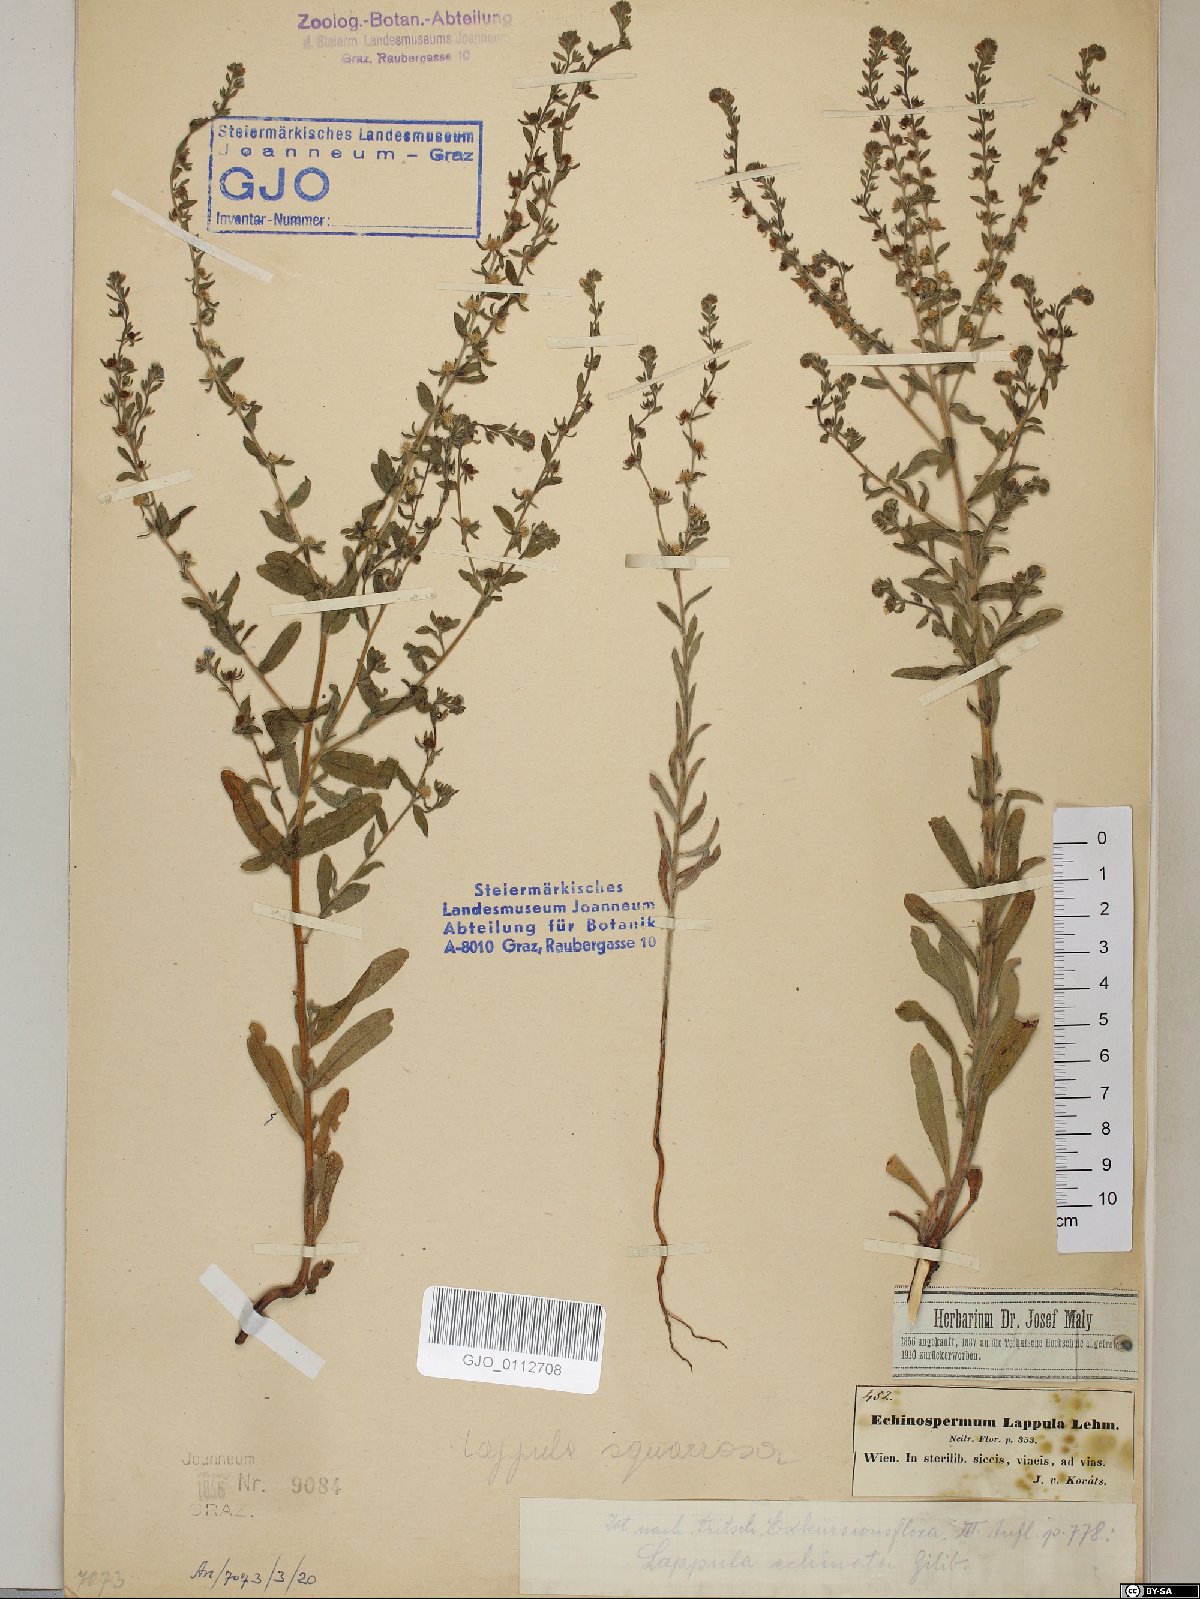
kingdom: Plantae
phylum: Tracheophyta
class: Magnoliopsida
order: Boraginales
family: Boraginaceae
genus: Lappula
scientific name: Lappula squarrosa
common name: European stickseed
